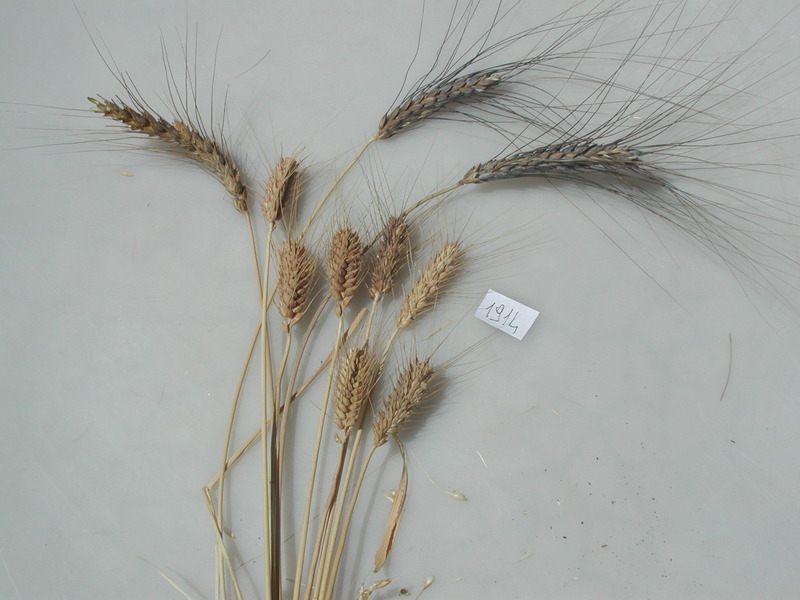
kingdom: Plantae
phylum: Tracheophyta
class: Liliopsida
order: Poales
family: Poaceae
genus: Triticum
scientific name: Triticum aestivum
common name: Wheat
